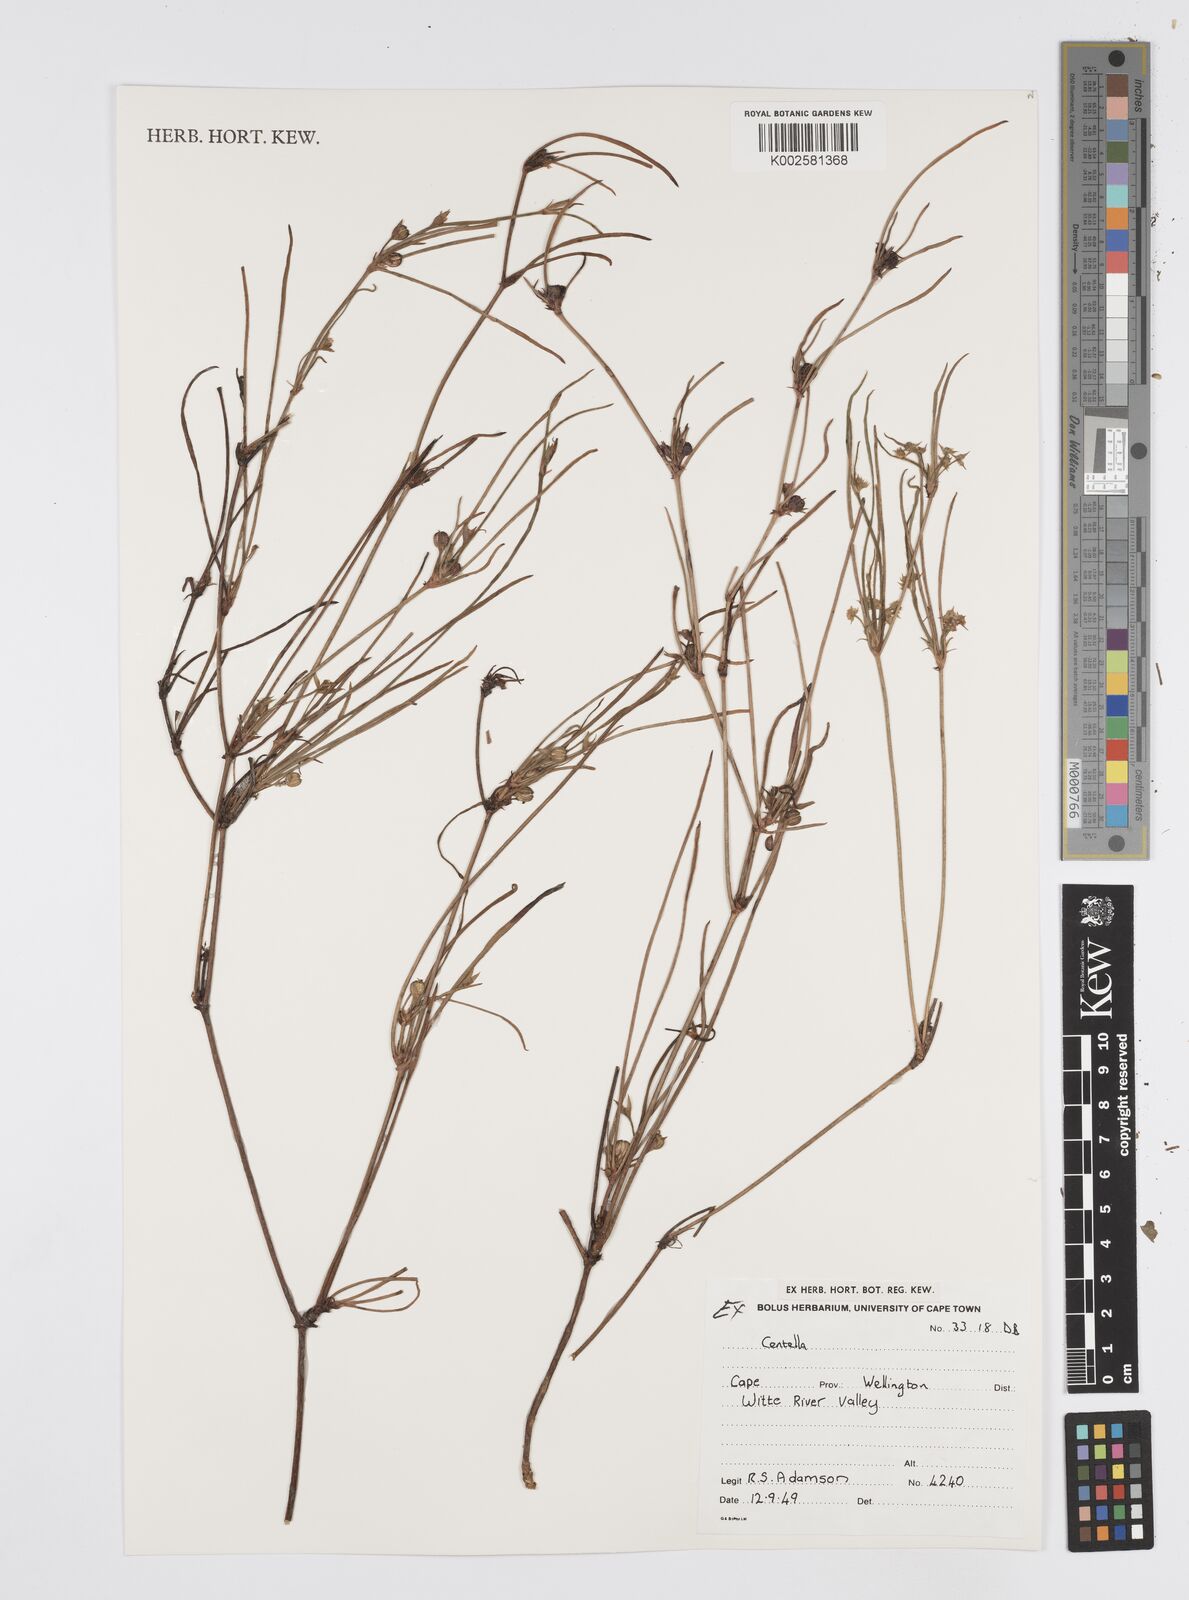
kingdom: Plantae
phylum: Tracheophyta
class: Magnoliopsida
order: Apiales
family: Apiaceae
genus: Centella
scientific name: Centella
